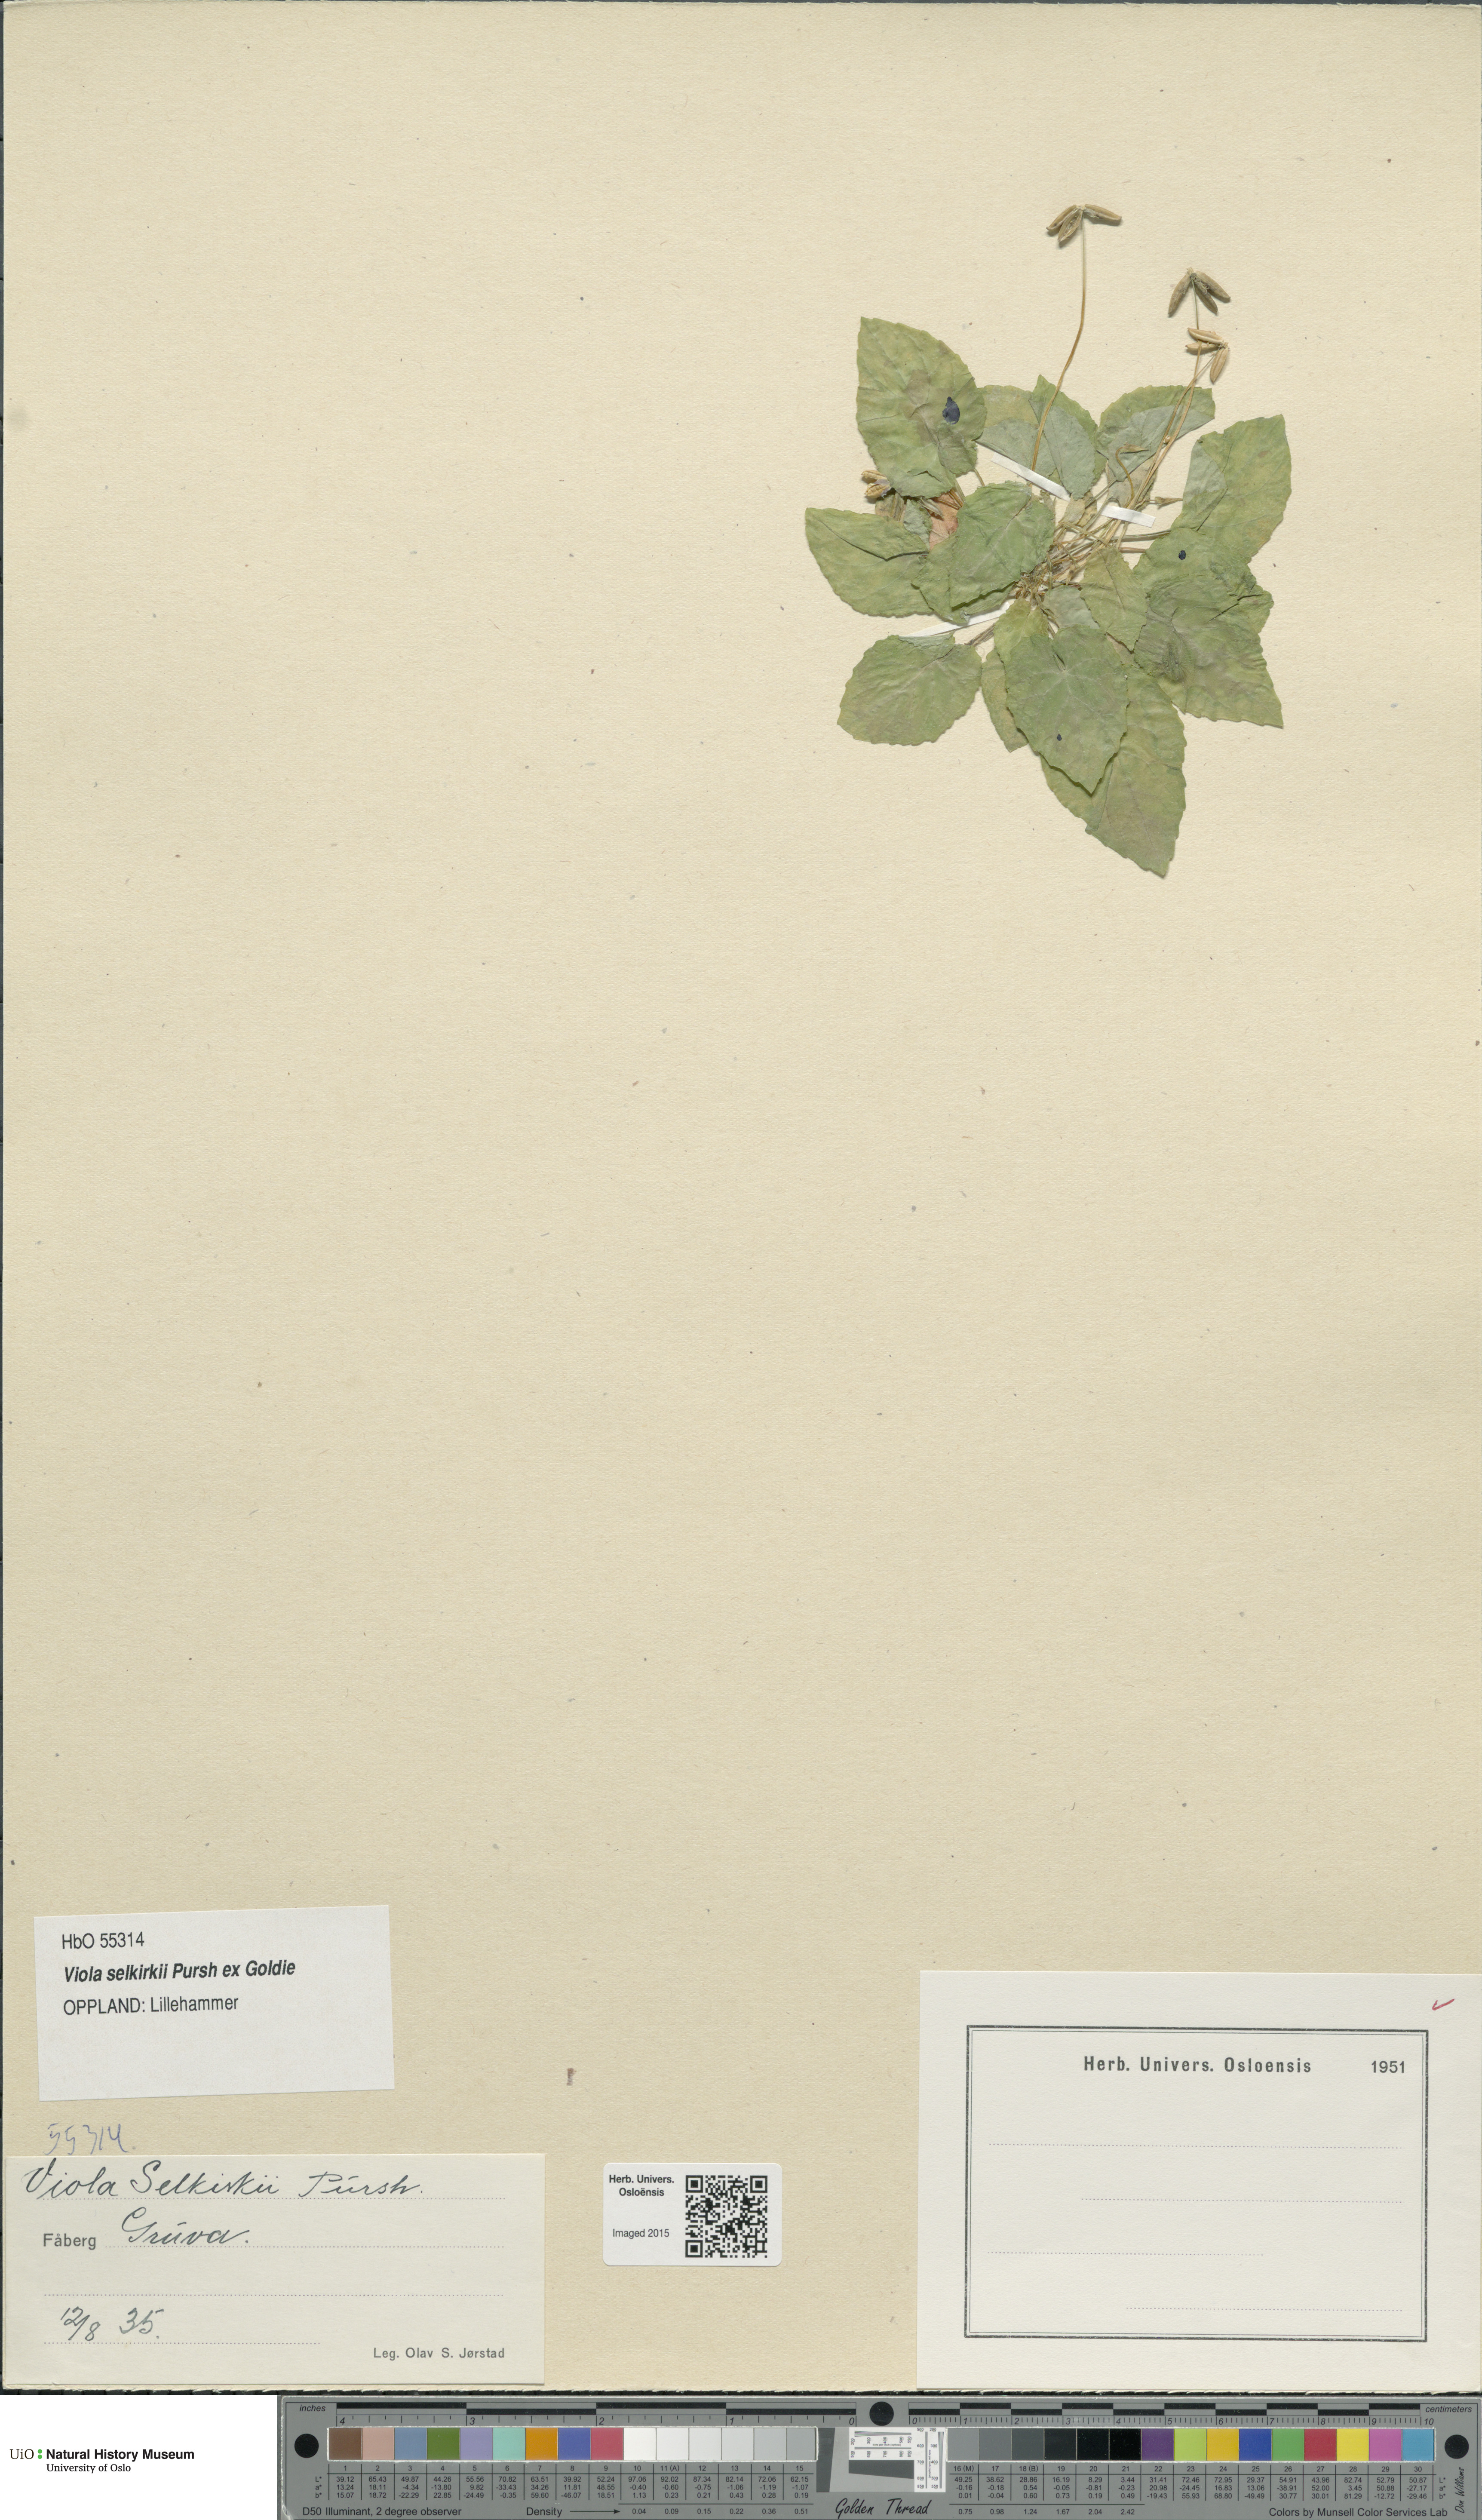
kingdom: Plantae
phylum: Tracheophyta
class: Magnoliopsida
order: Malpighiales
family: Violaceae
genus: Viola
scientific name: Viola selkirkii
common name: Selkirk's violet
